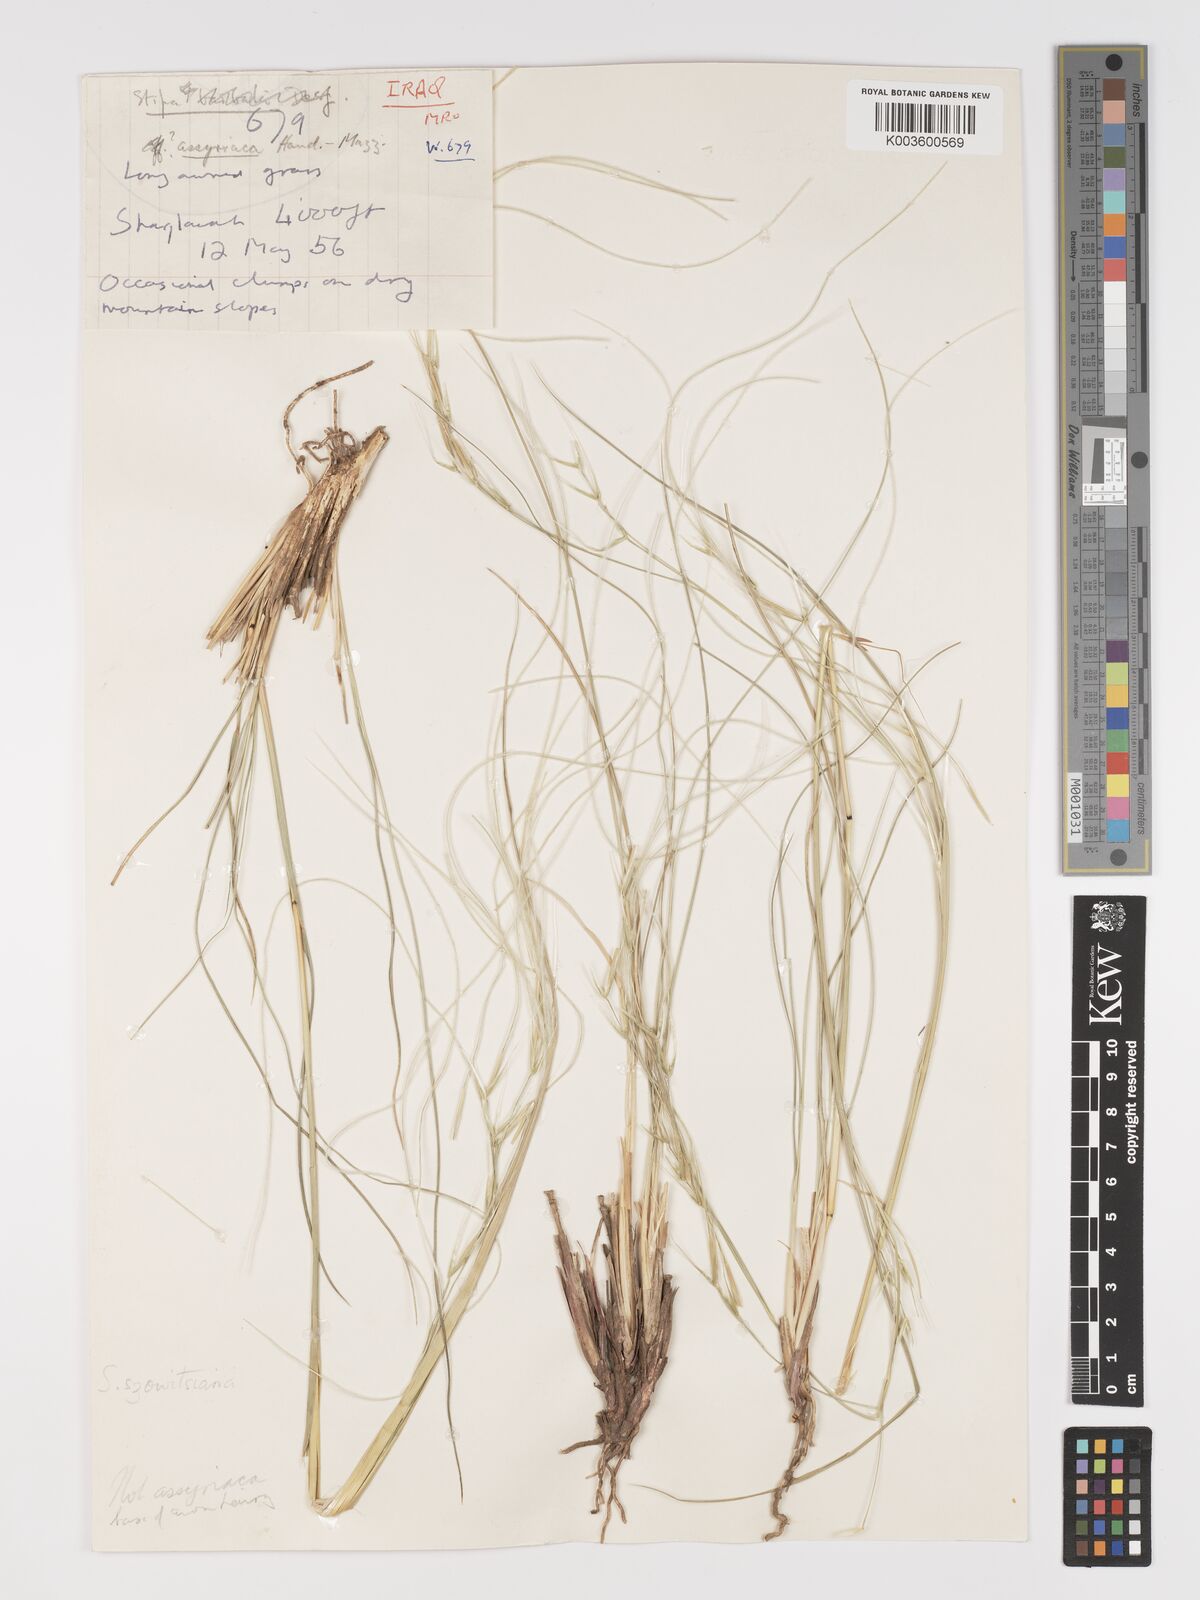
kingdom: Plantae
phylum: Tracheophyta
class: Liliopsida
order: Poales
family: Poaceae
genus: Stipa
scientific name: Stipa barbata
